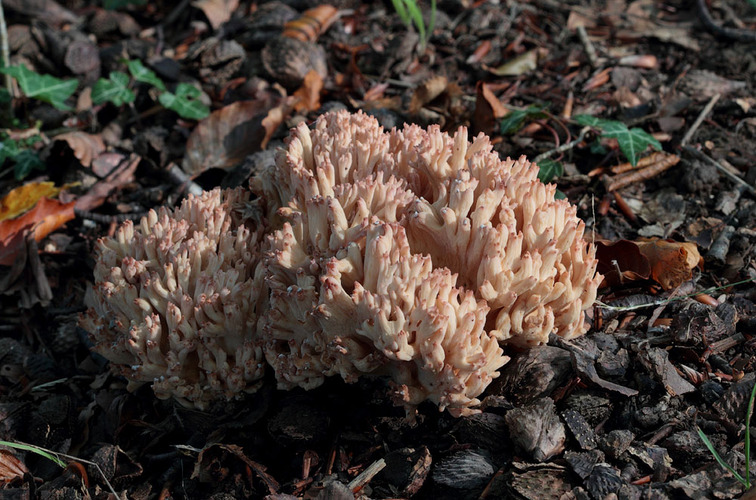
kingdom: Fungi
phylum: Basidiomycota
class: Agaricomycetes
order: Gomphales
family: Gomphaceae
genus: Ramaria
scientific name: Ramaria botrytis
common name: drue-koralsvamp
